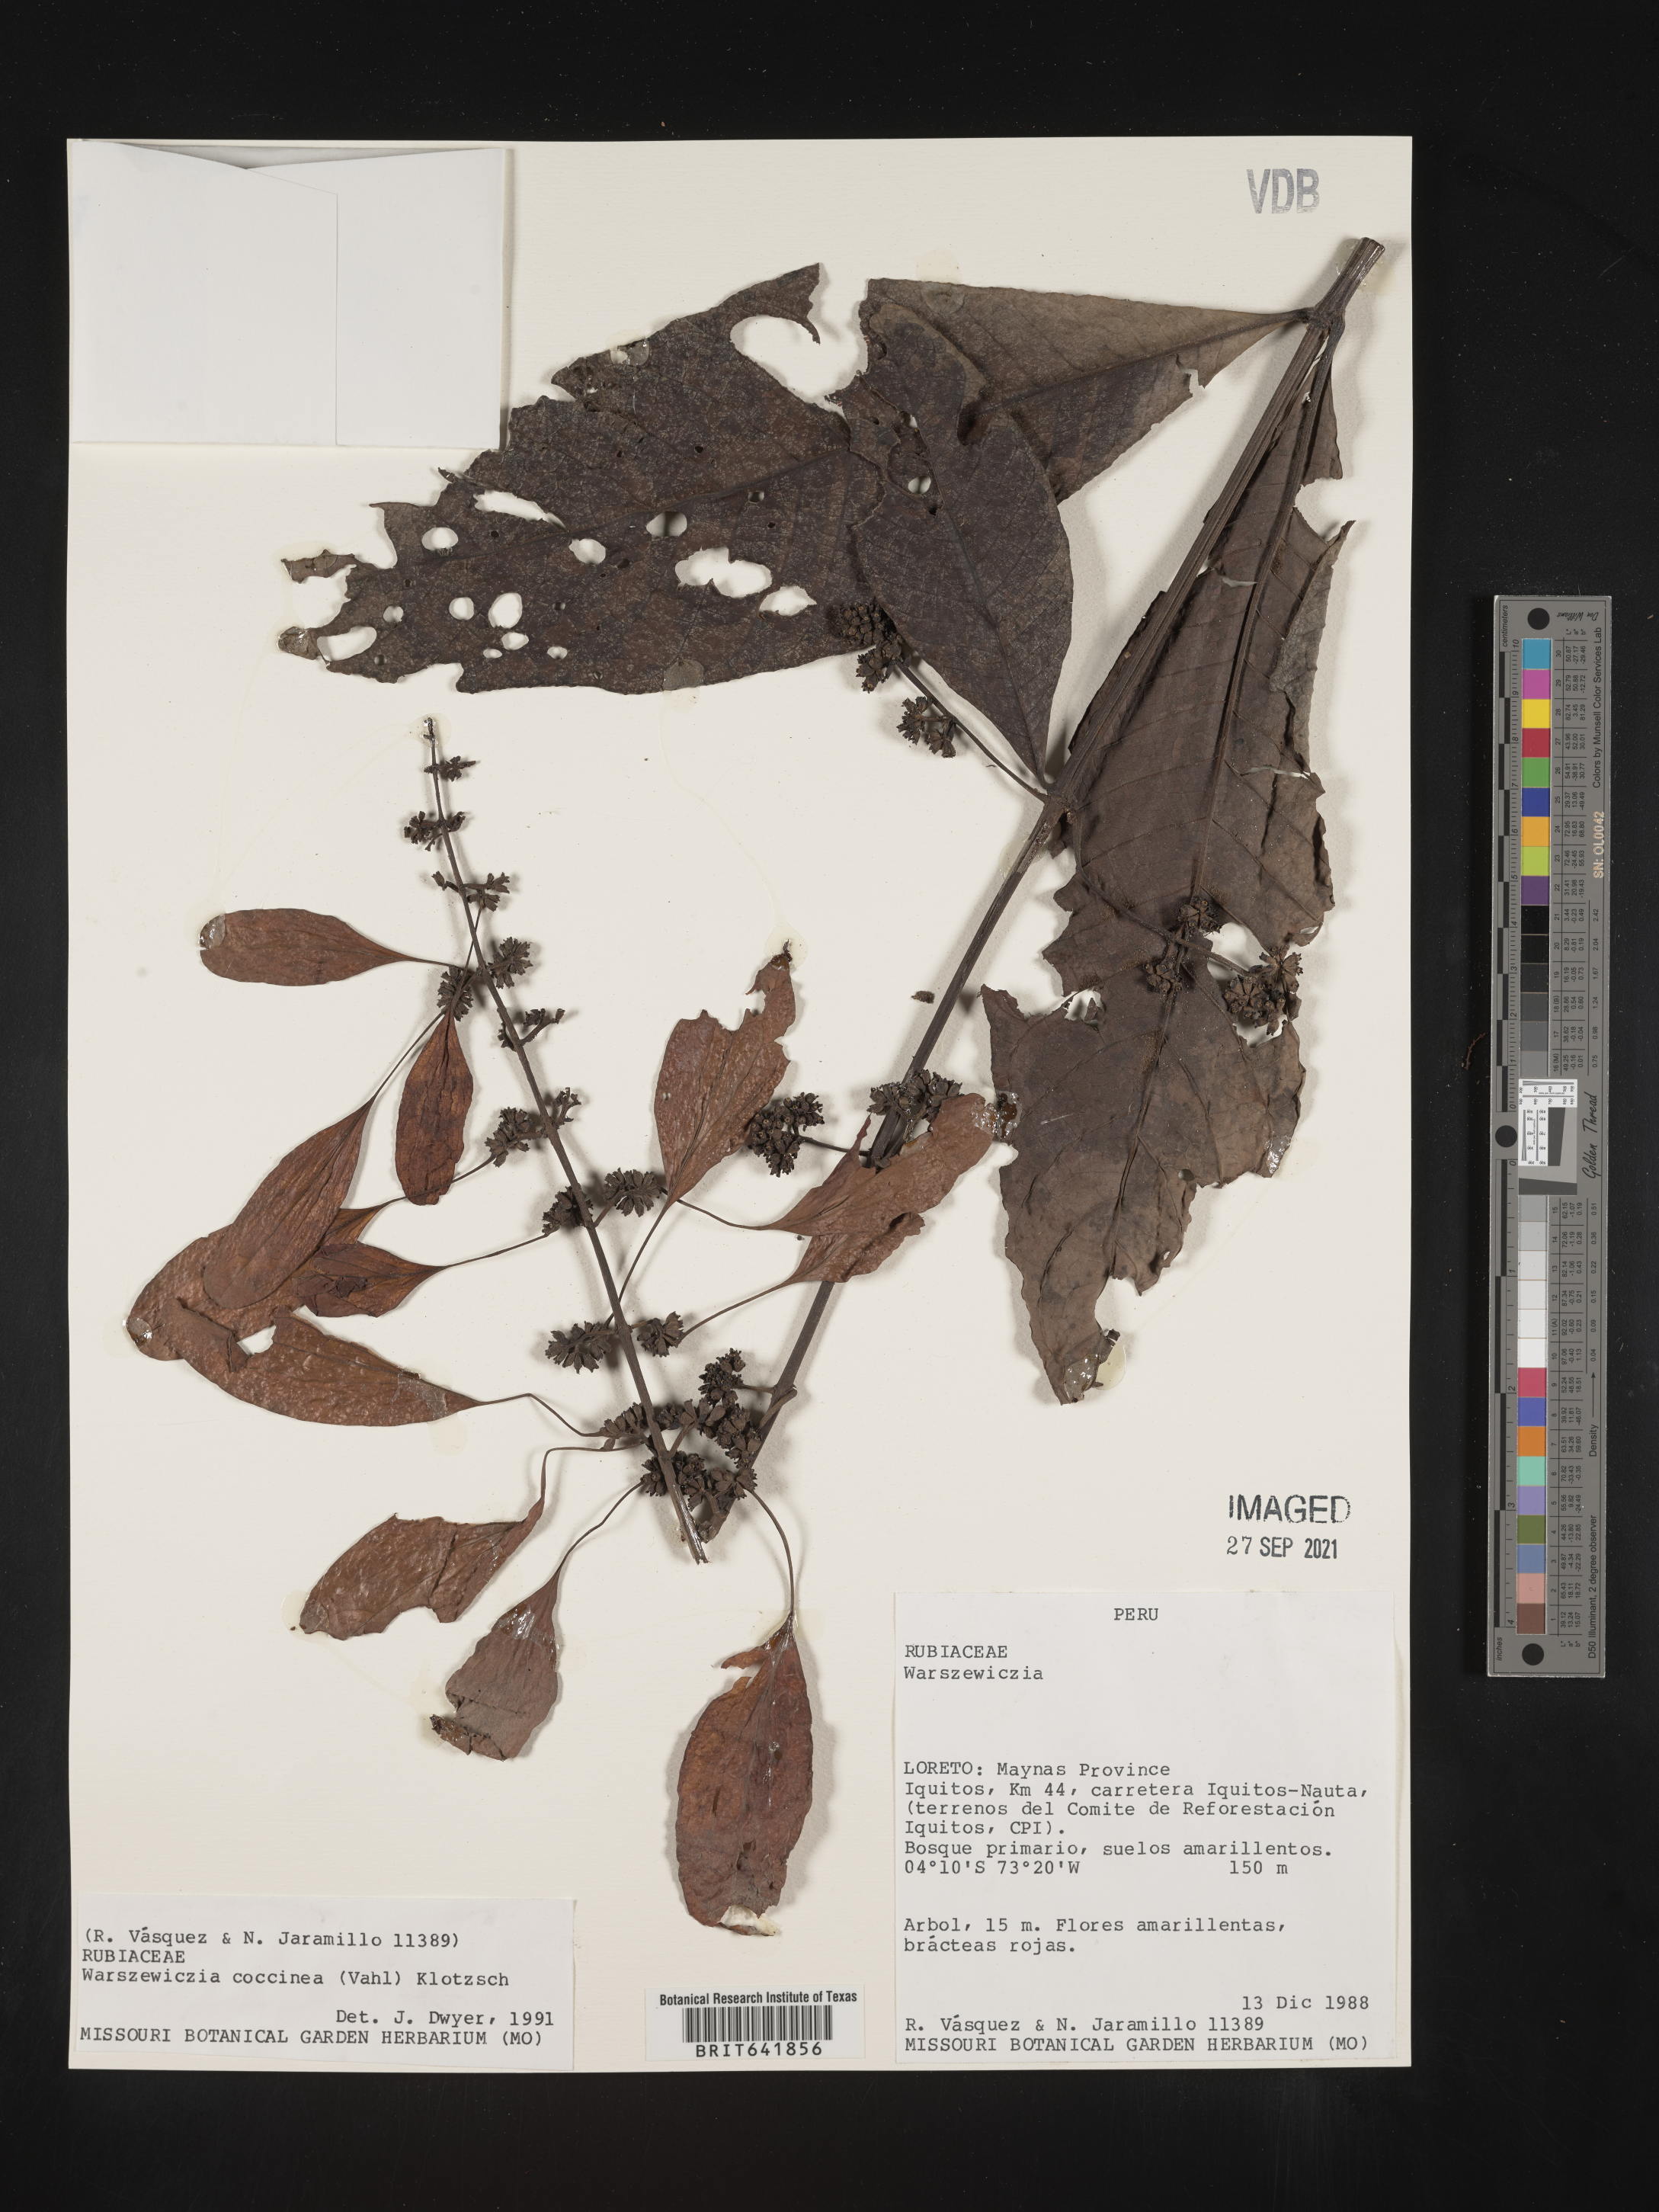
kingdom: Plantae
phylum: Tracheophyta
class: Magnoliopsida
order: Gentianales
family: Rubiaceae
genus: Warszewiczia
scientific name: Warszewiczia
